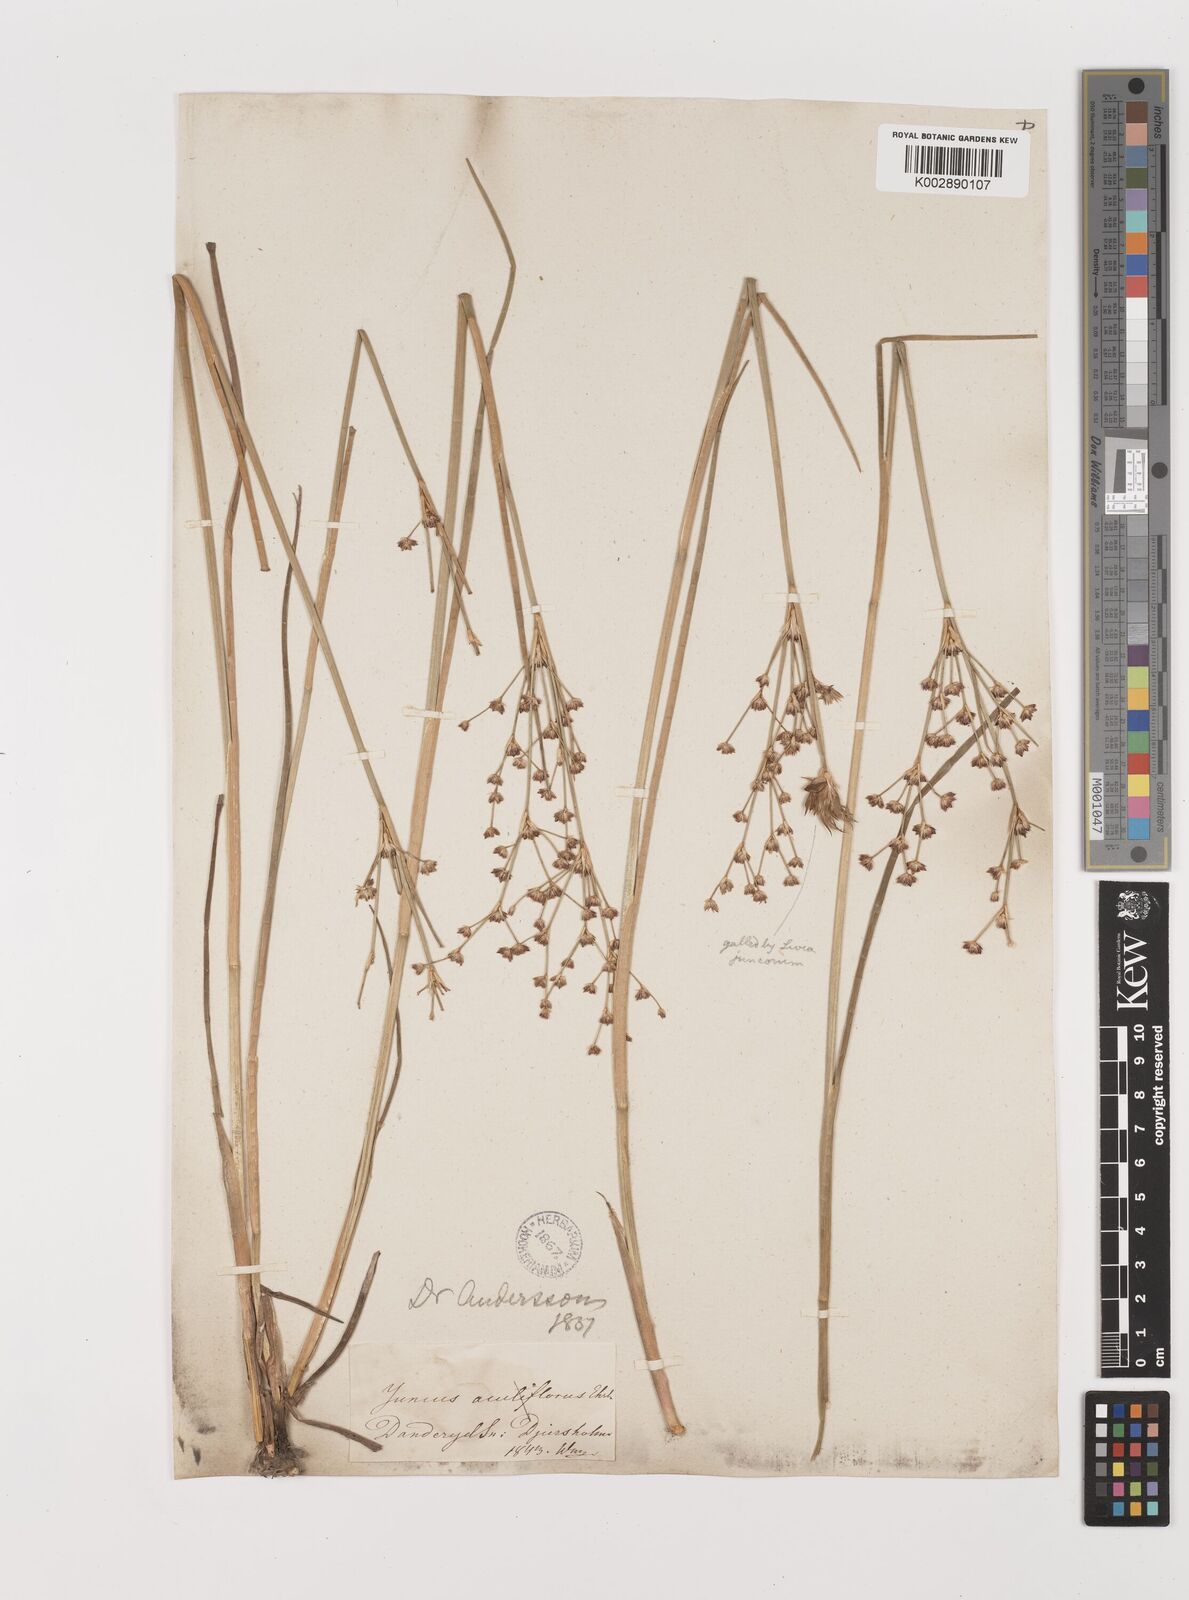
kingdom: Plantae
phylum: Tracheophyta
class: Liliopsida
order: Poales
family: Juncaceae
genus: Juncus
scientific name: Juncus articulatus
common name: Jointed rush
